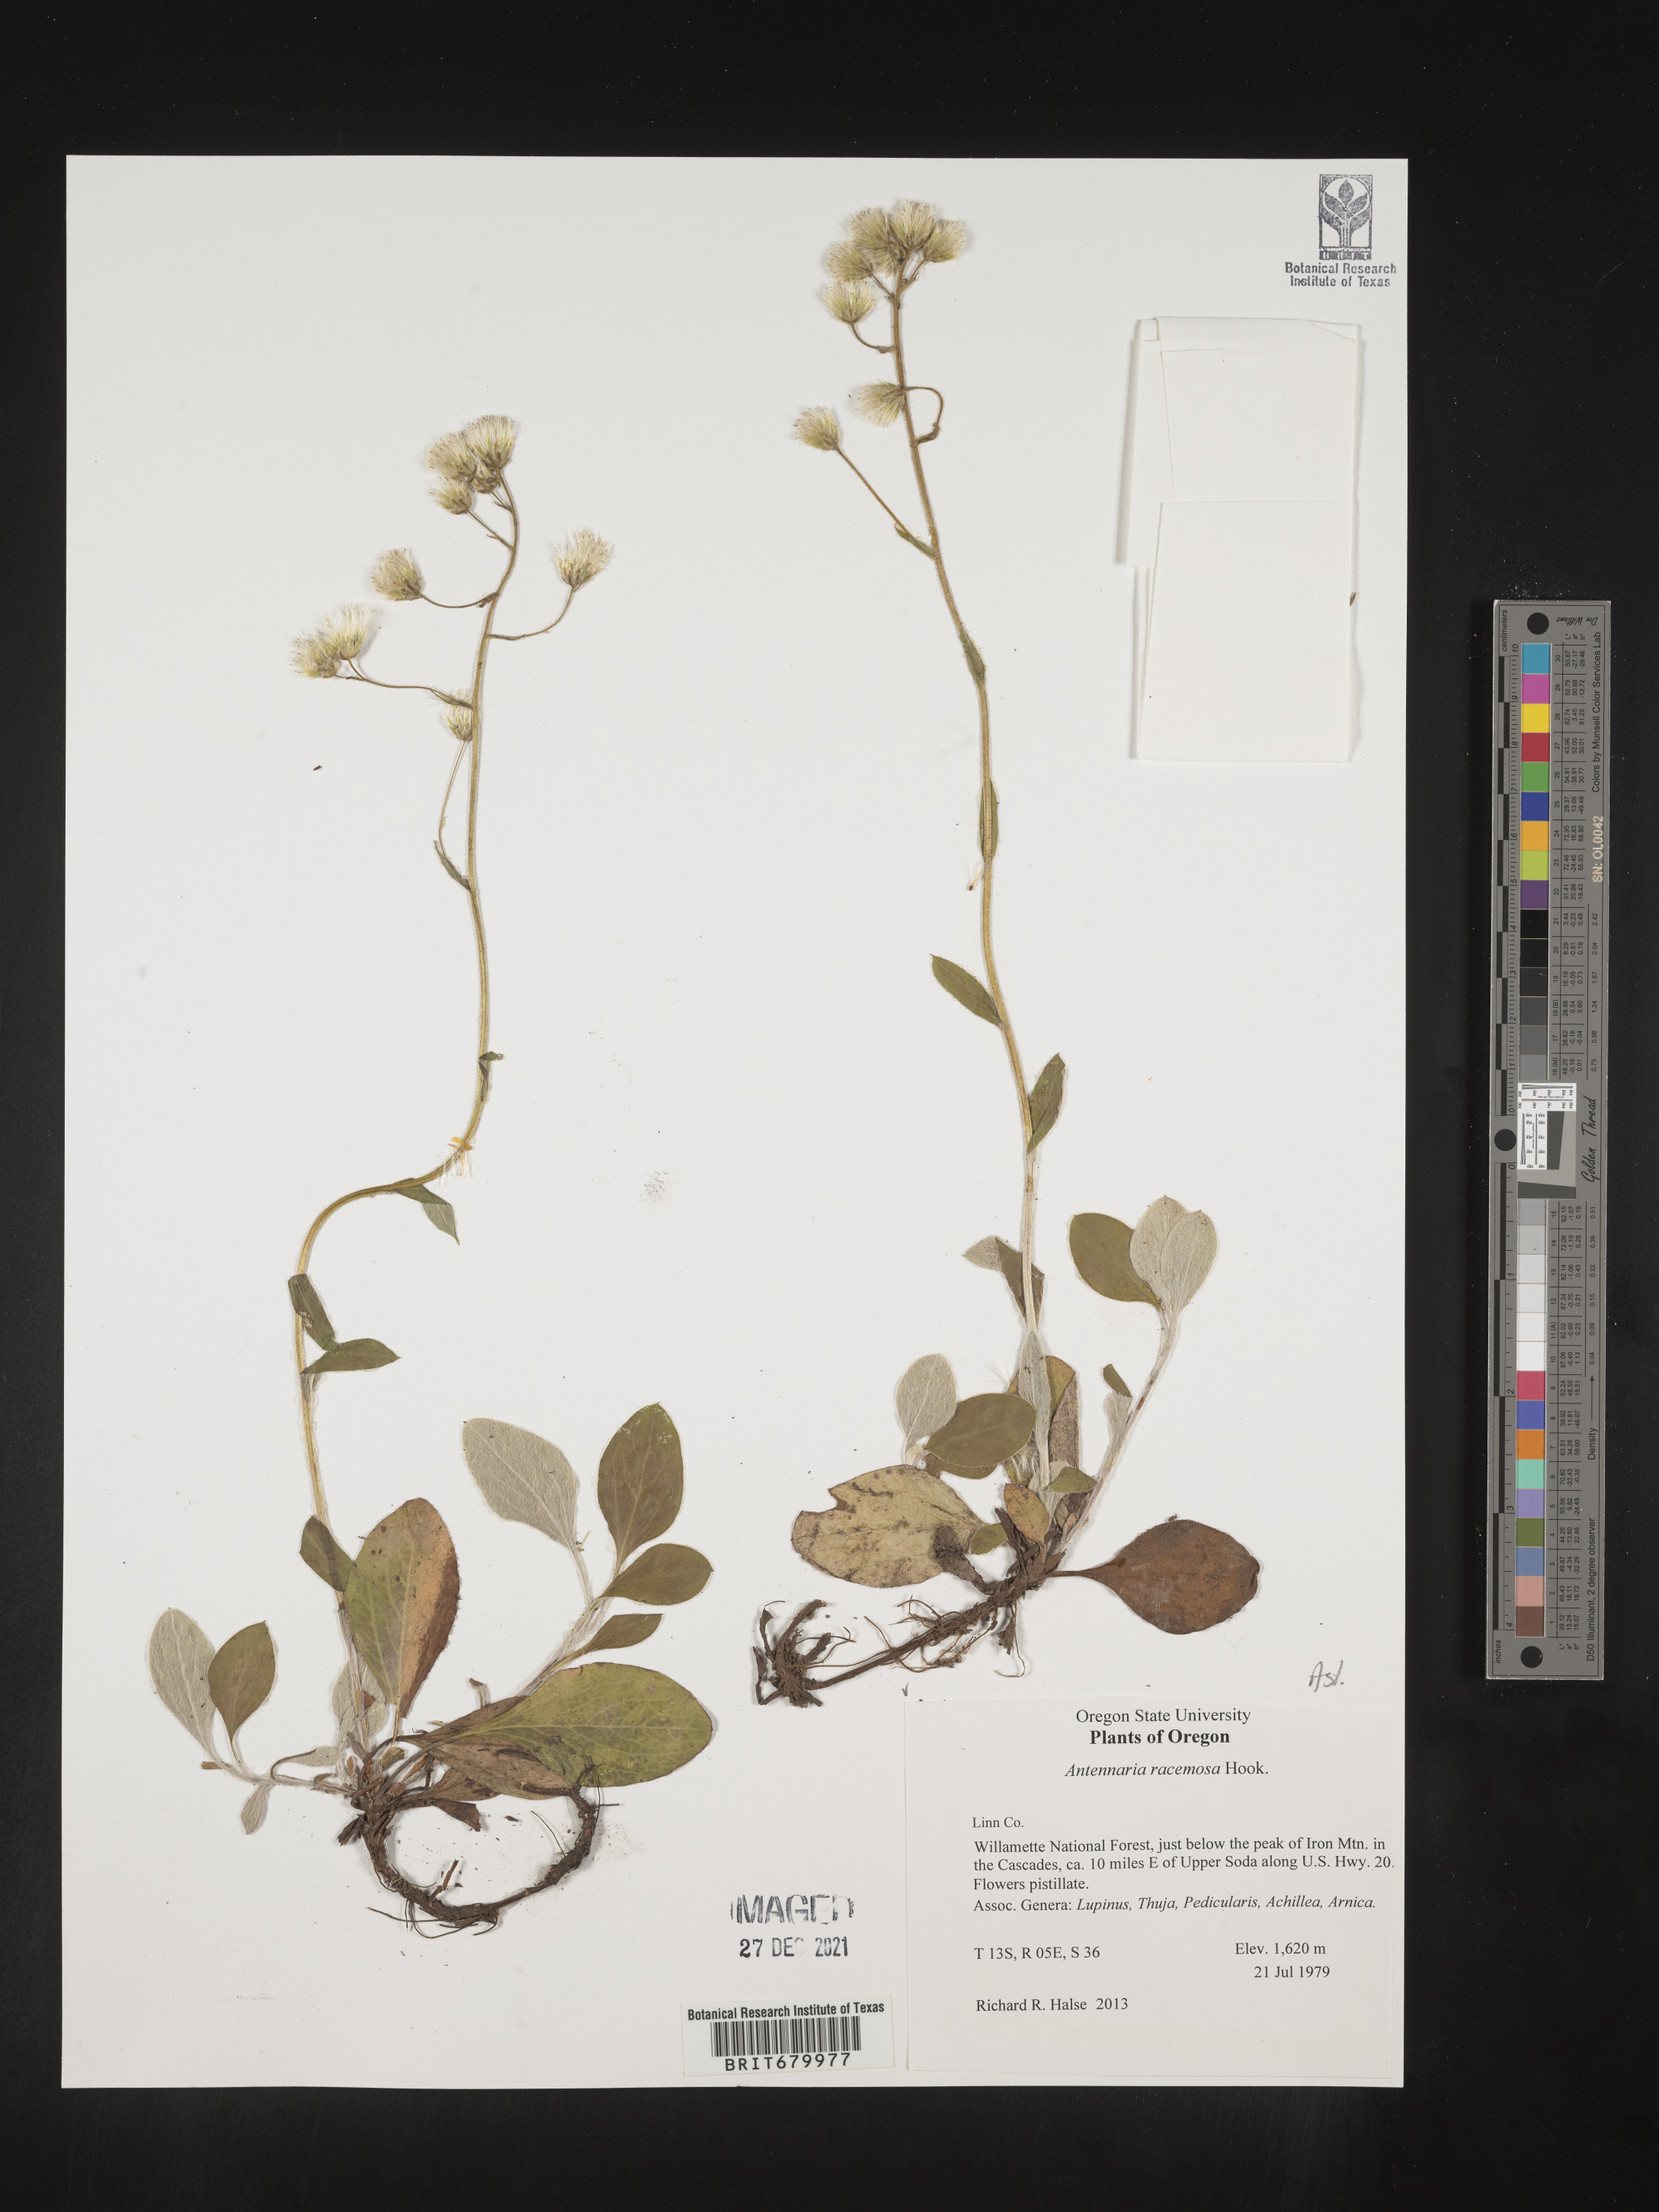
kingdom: Plantae
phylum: Tracheophyta
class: Magnoliopsida
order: Asterales
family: Asteraceae
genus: Antennaria
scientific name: Antennaria racemosa
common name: Racemose pussytoes
